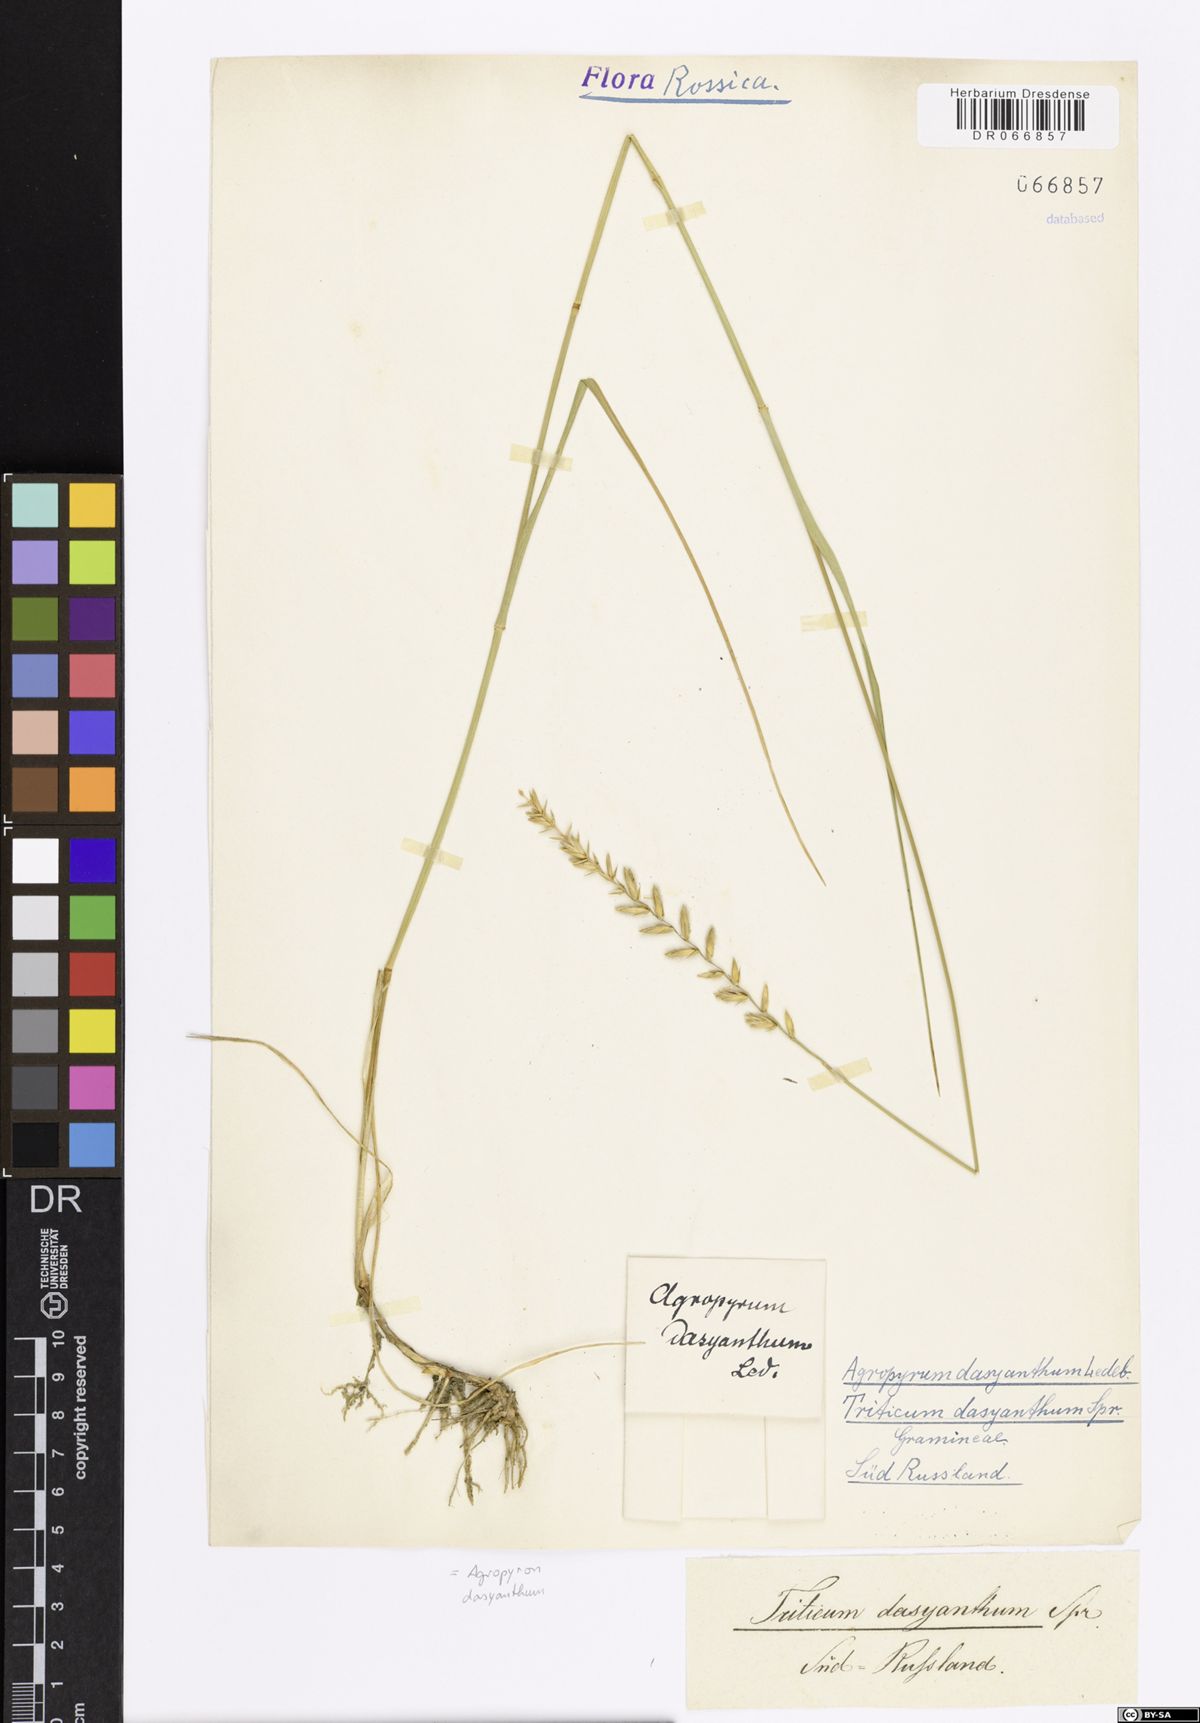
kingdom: Plantae
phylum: Tracheophyta
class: Liliopsida
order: Poales
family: Poaceae
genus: Agropyron
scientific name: Agropyron dasyanthum
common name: Edge flowered crested wheatgrass
